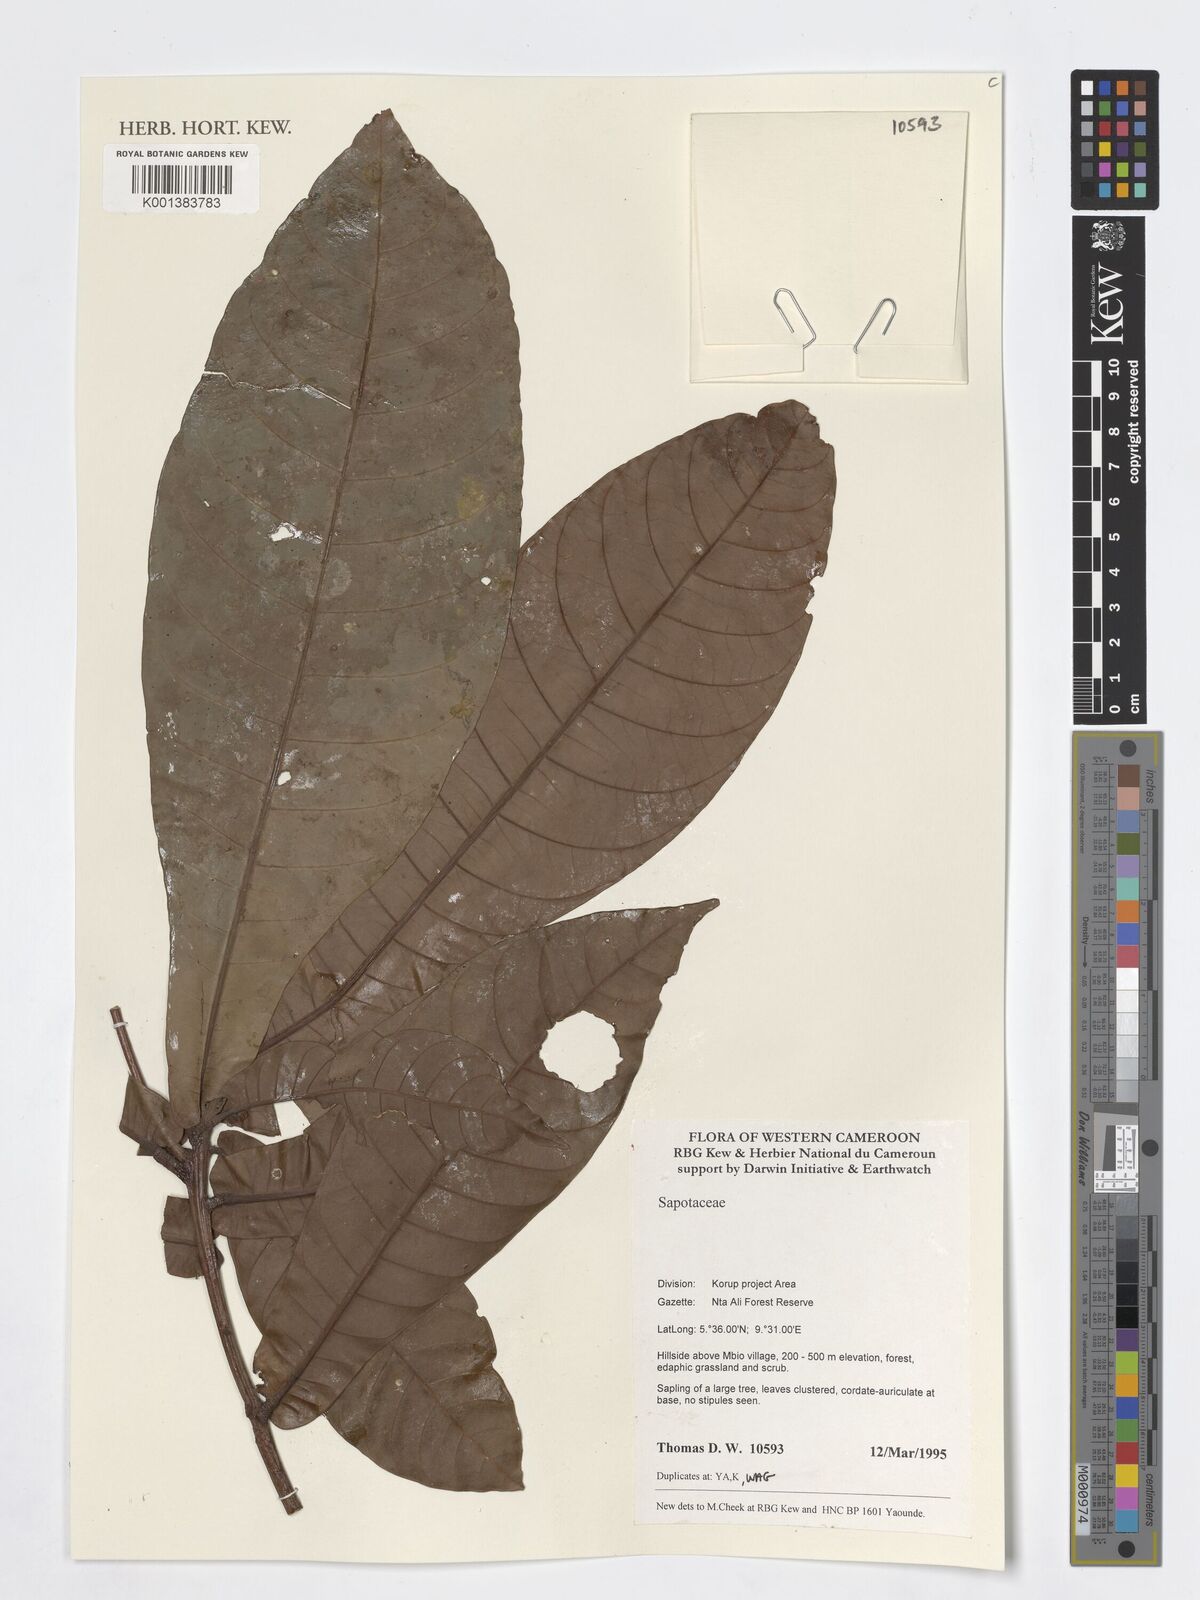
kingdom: Plantae
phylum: Tracheophyta
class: Magnoliopsida
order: Ericales
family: Sapotaceae
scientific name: Sapotaceae
